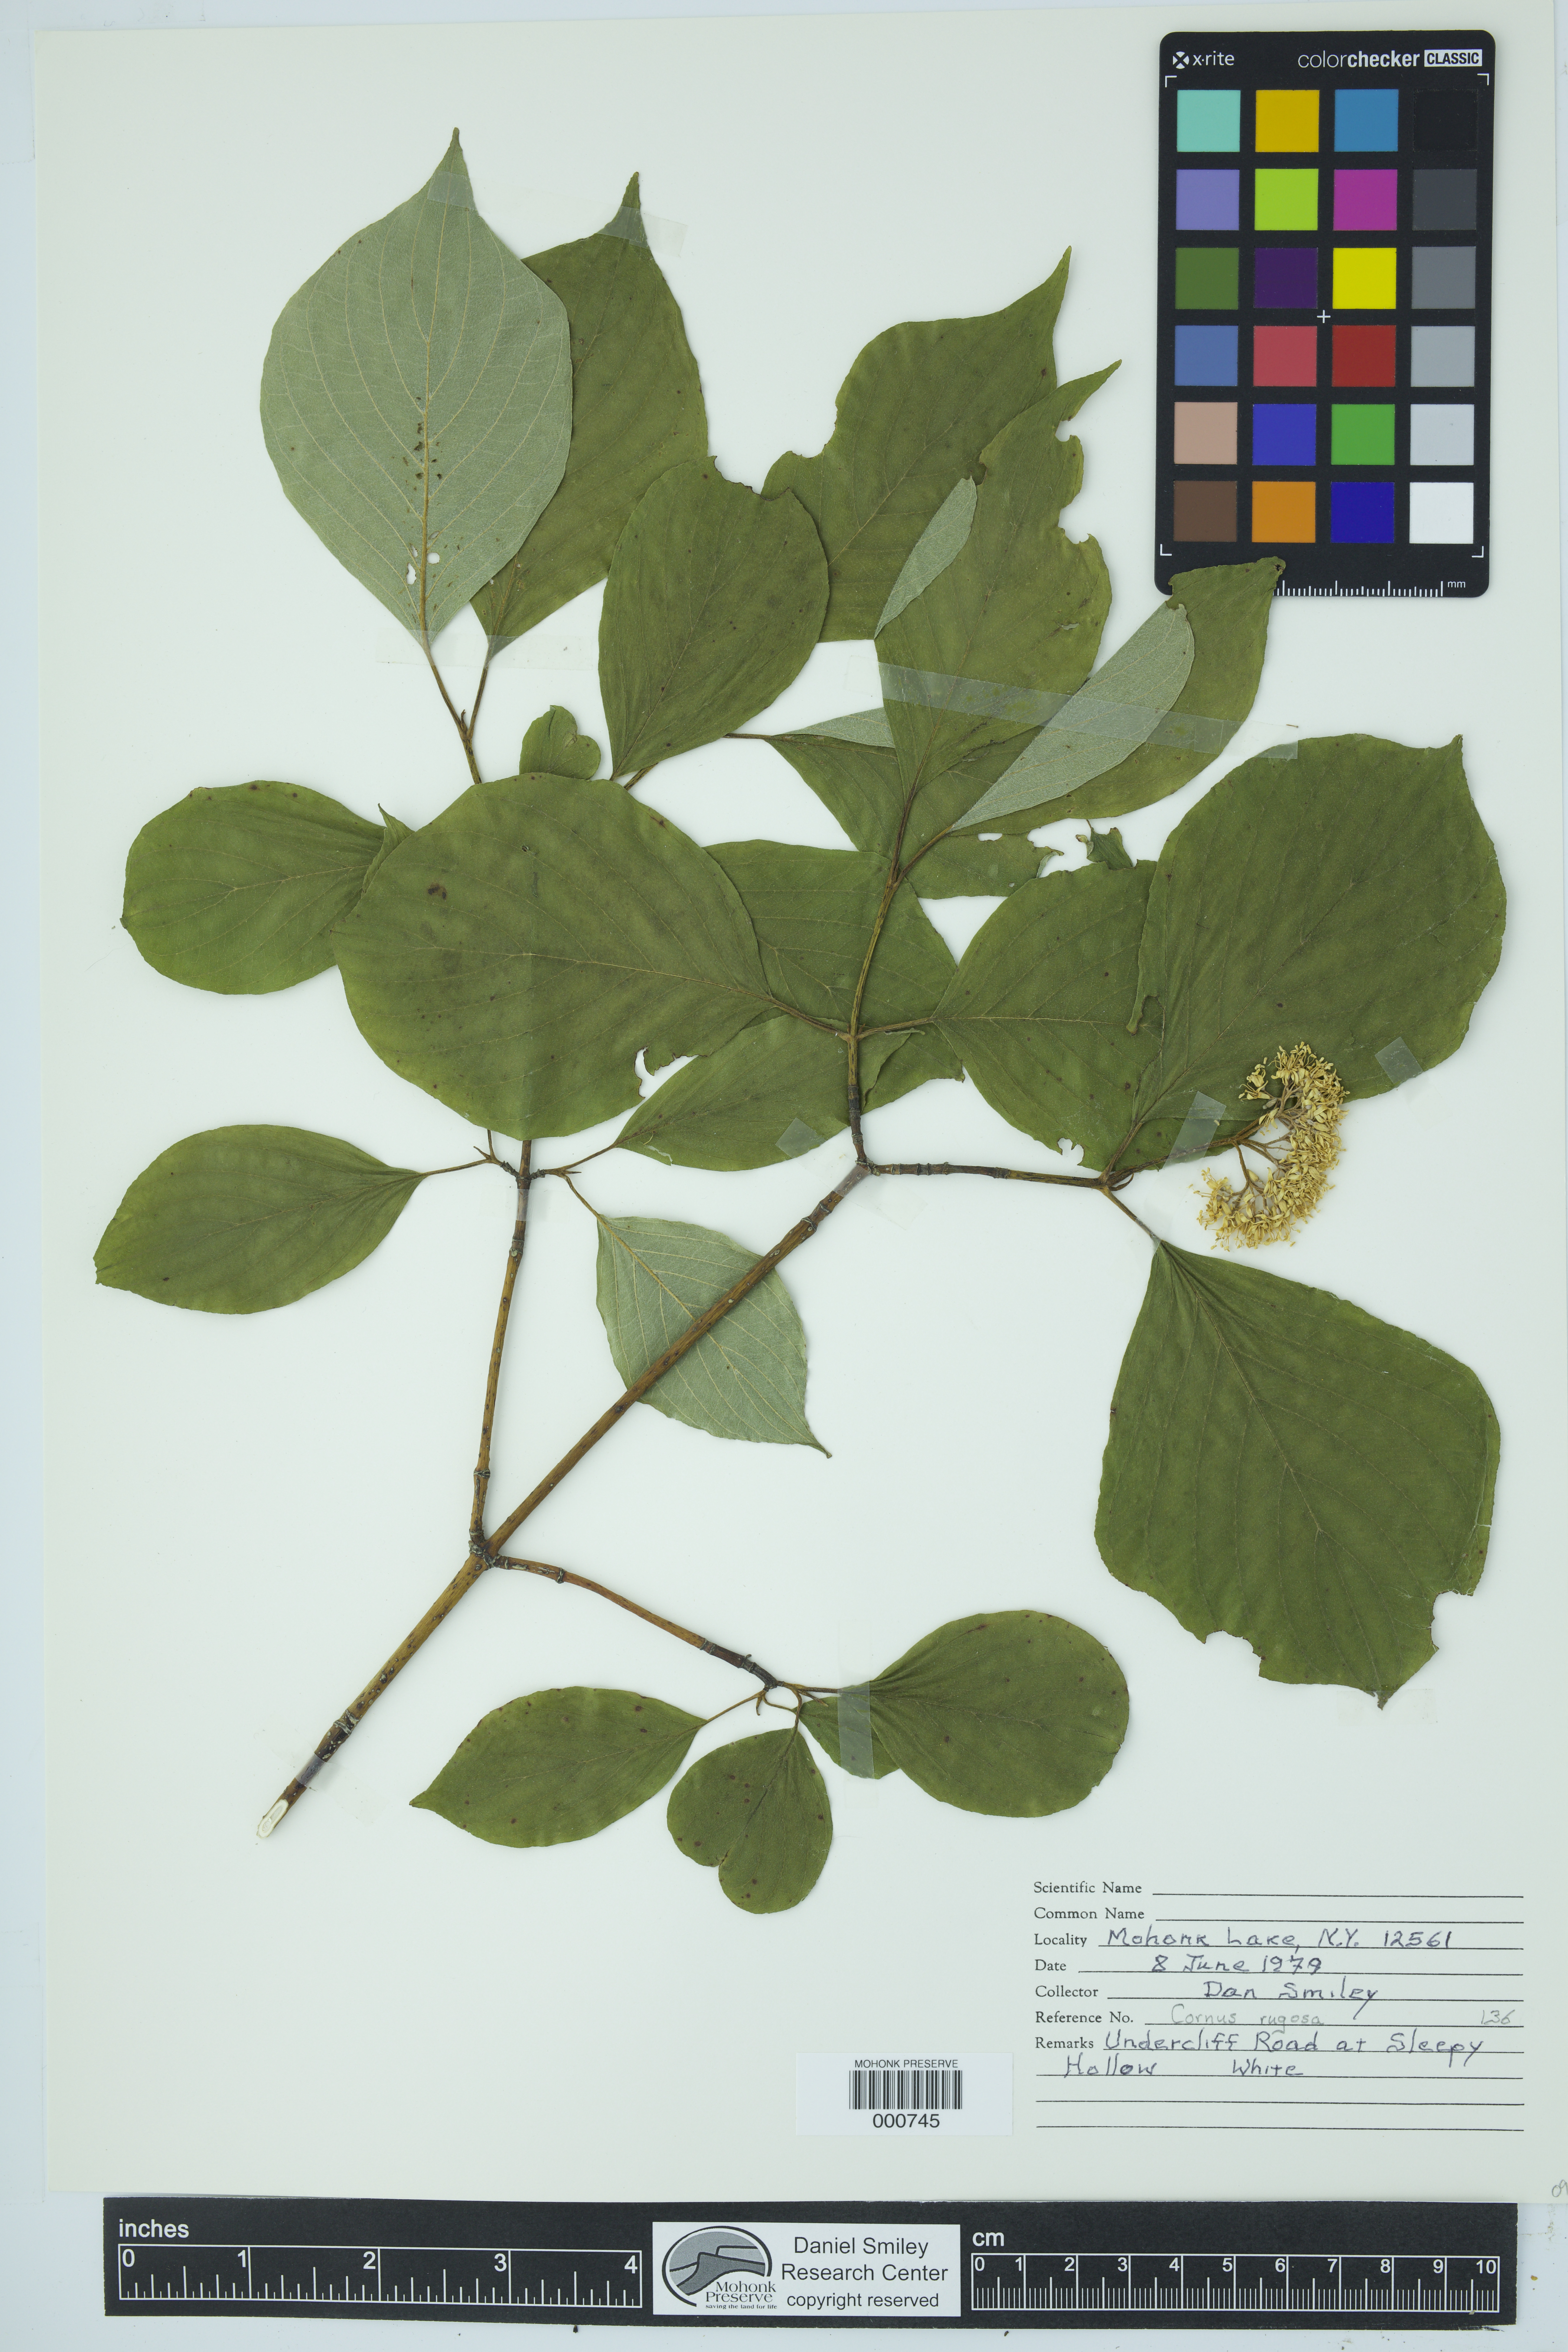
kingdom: Plantae
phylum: Tracheophyta
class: Magnoliopsida
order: Cornales
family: Cornaceae
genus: Cornus
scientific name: Cornus rugosa
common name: Round-leaf dogwood
